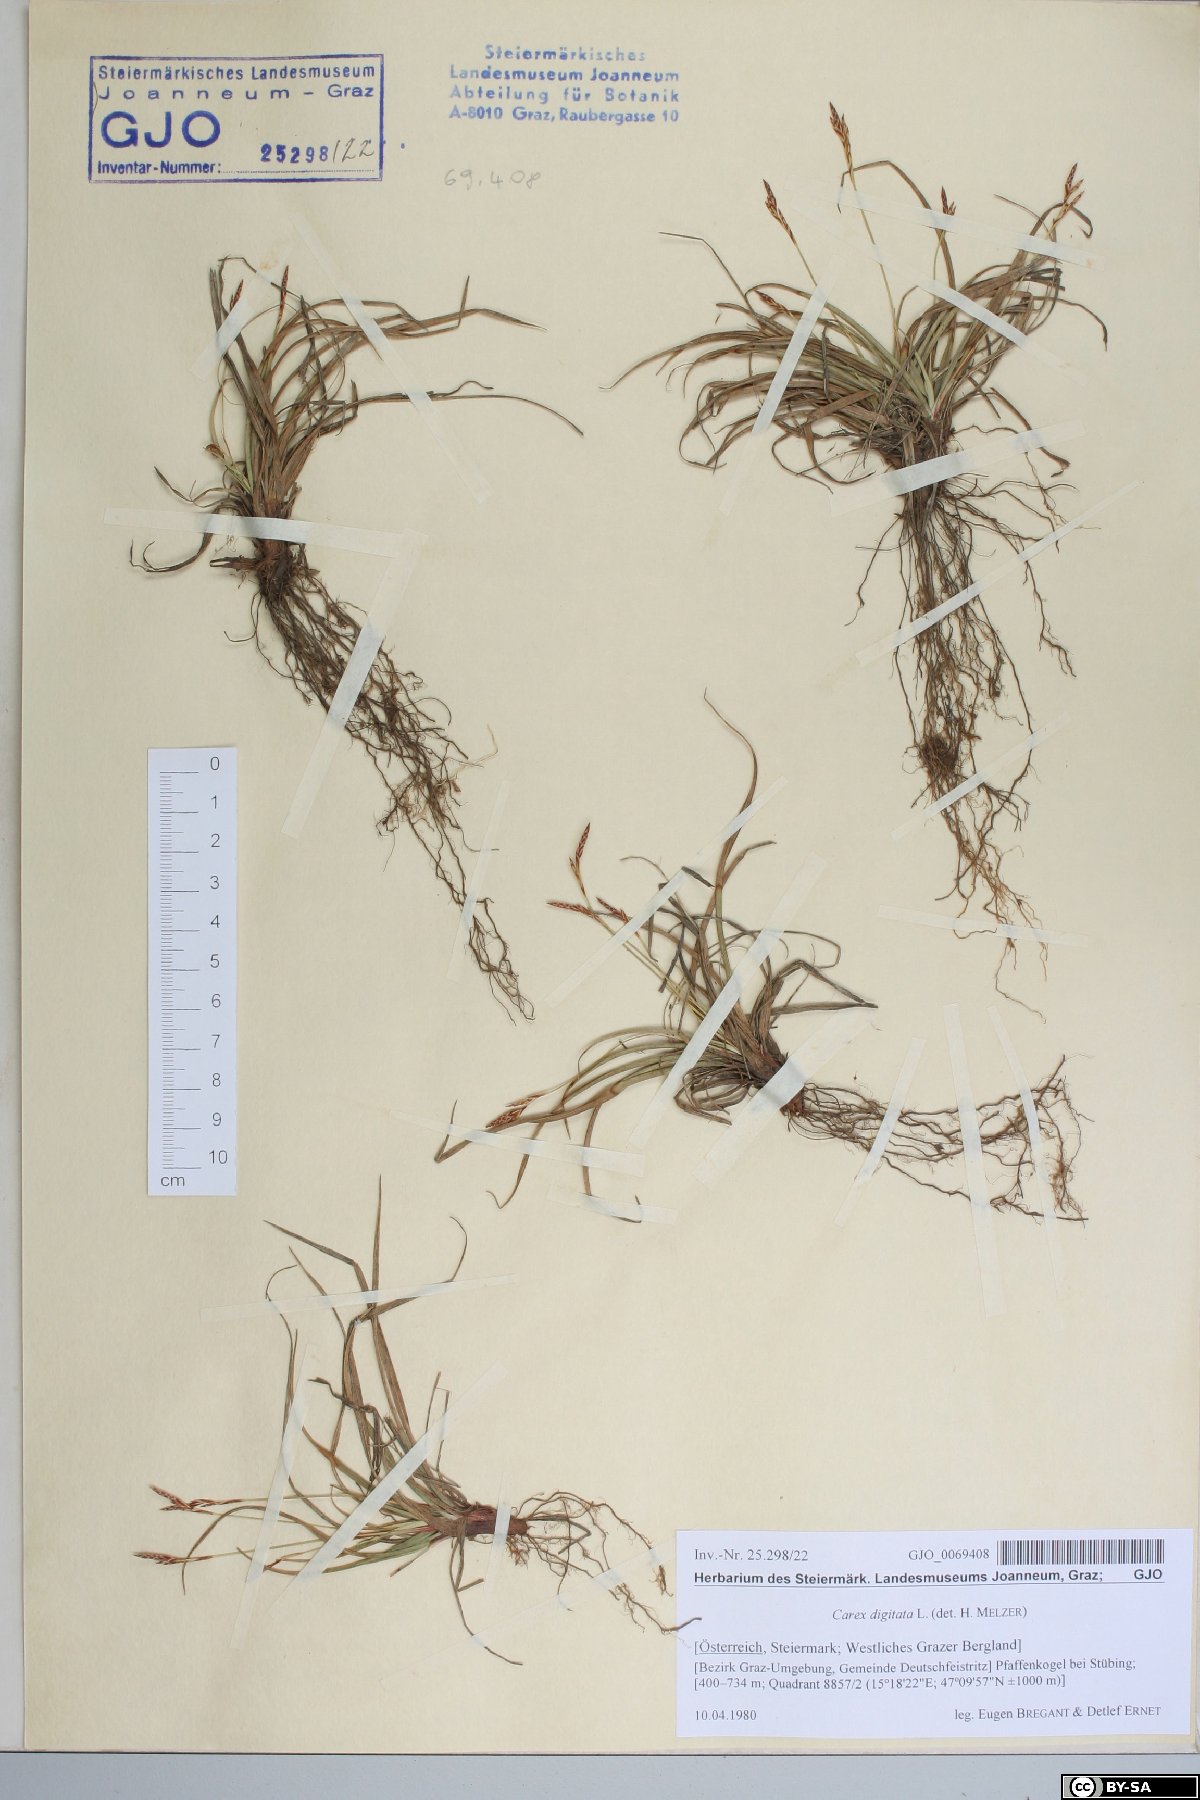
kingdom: Plantae
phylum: Tracheophyta
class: Liliopsida
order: Poales
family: Cyperaceae
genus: Carex
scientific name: Carex digitata
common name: Fingered sedge
